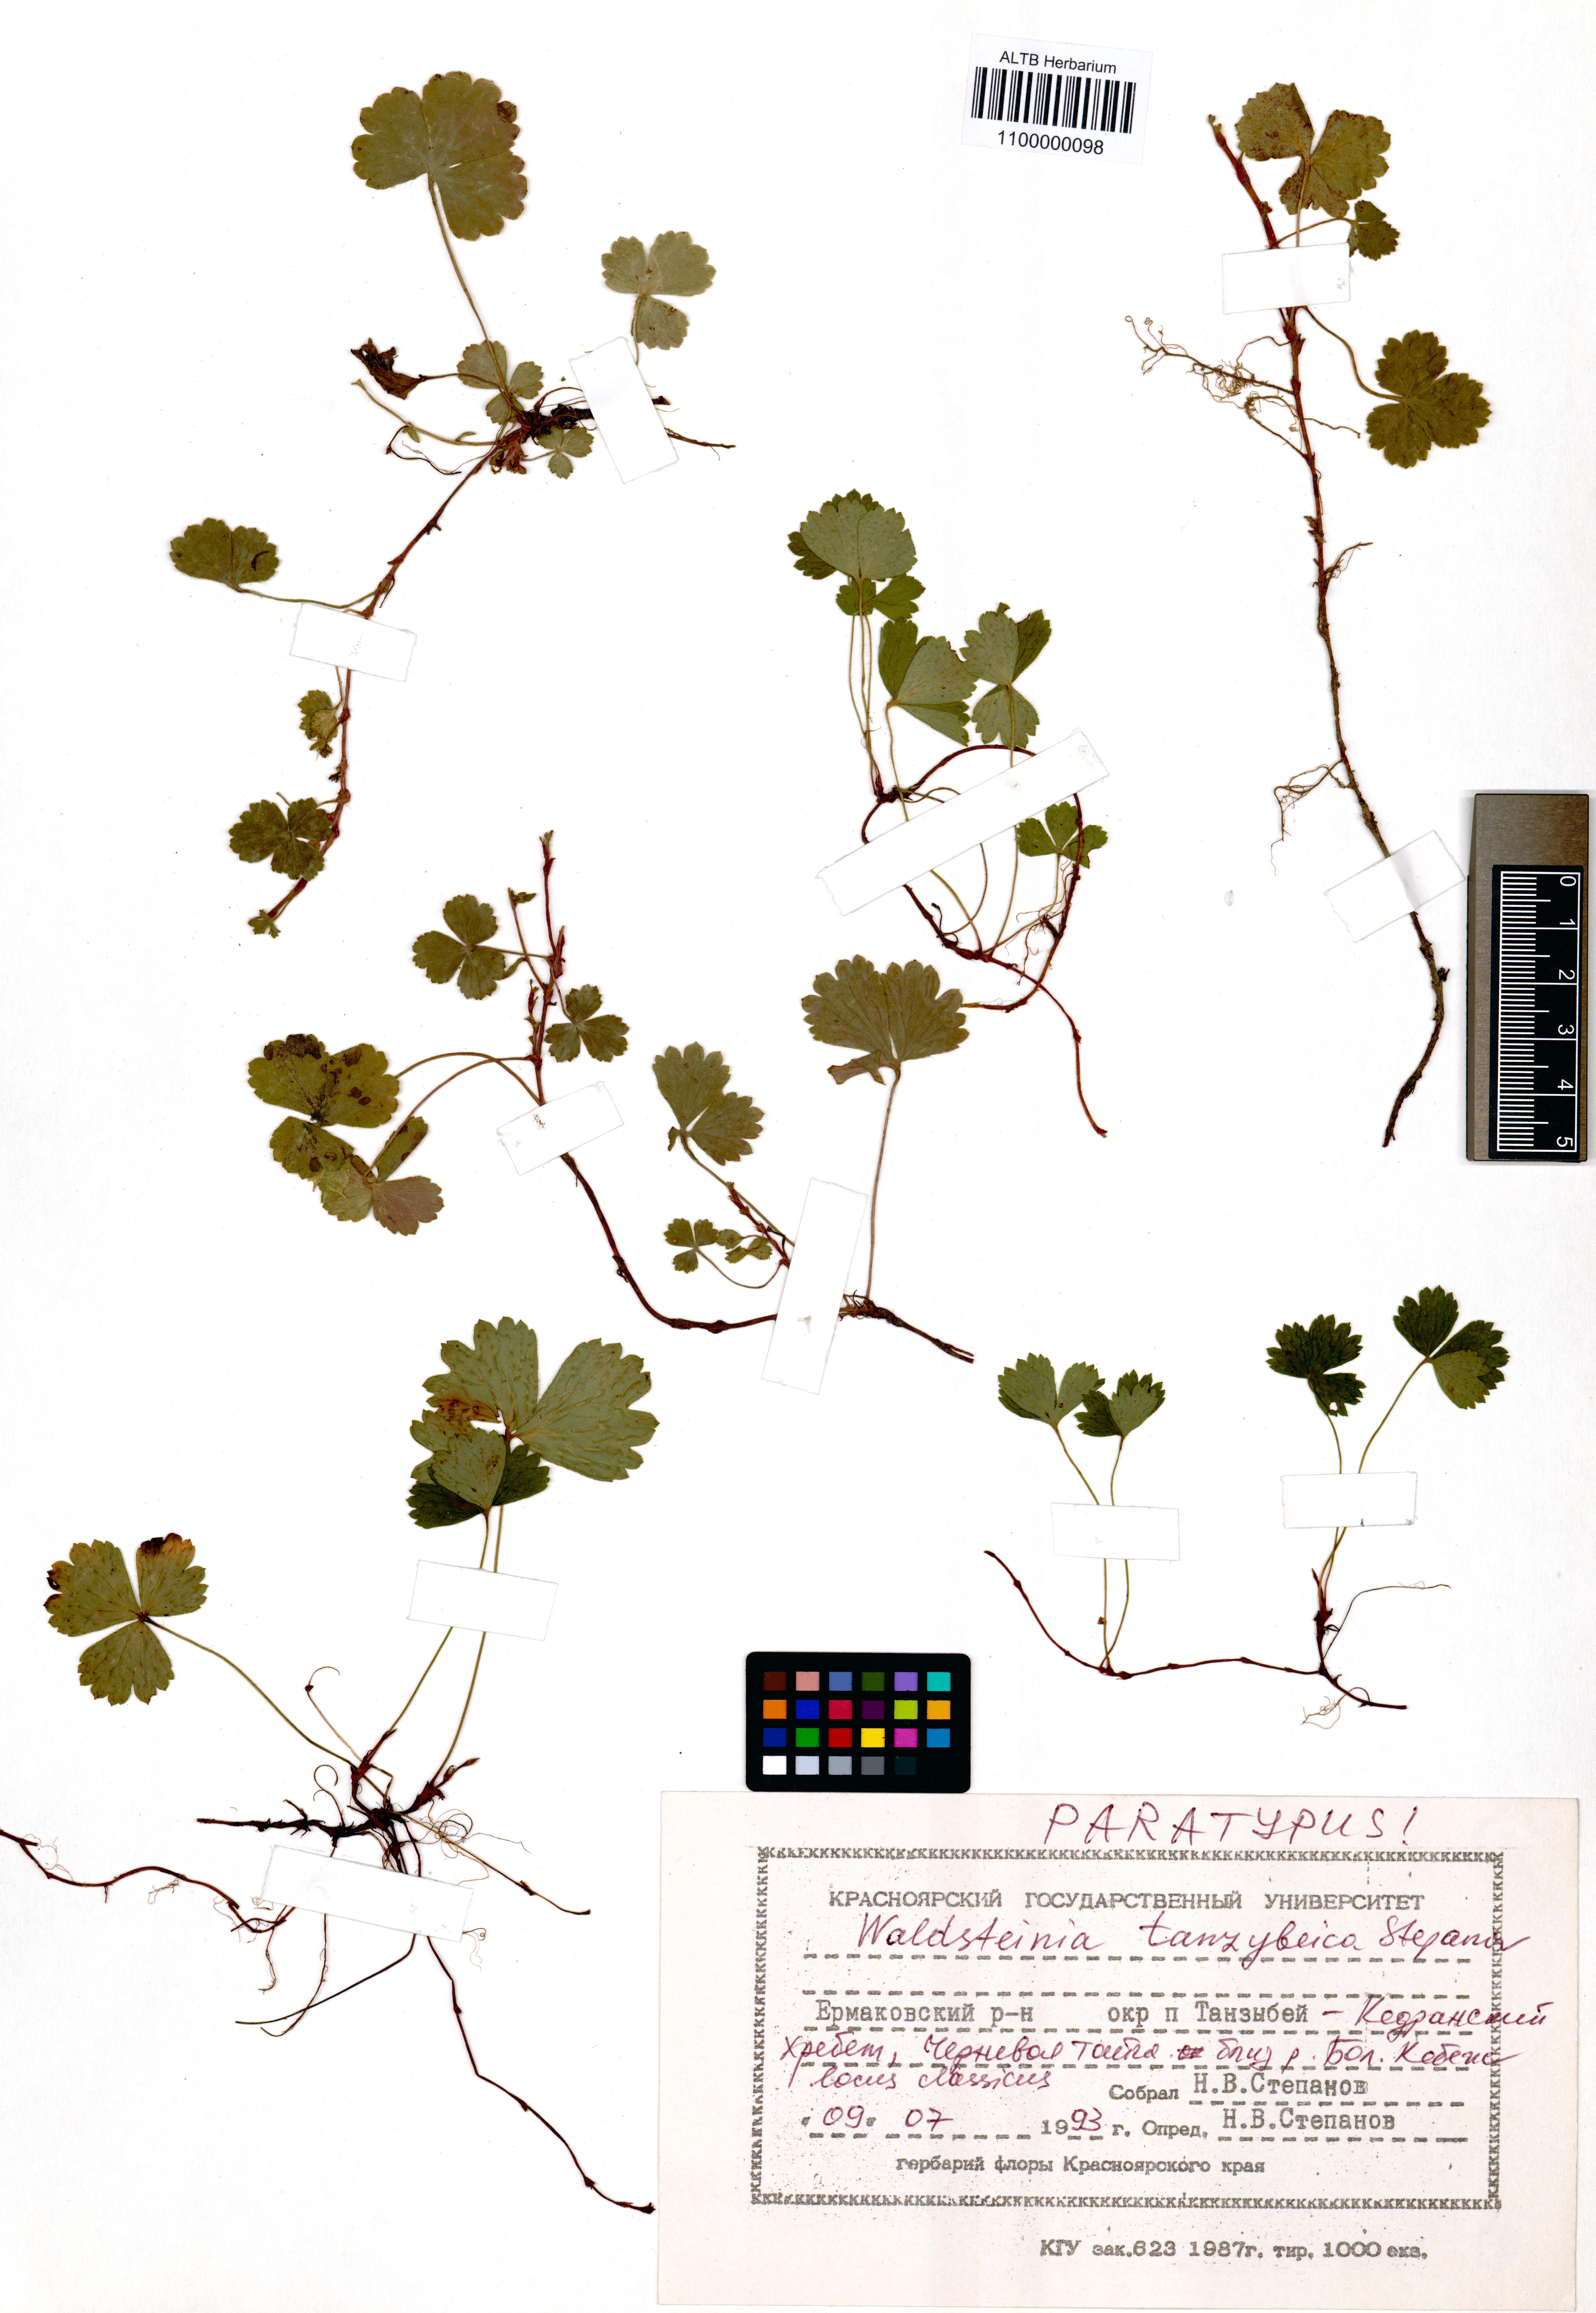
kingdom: Plantae
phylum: Tracheophyta
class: Magnoliopsida
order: Rosales
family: Rosaceae
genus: Geum
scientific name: Geum tanzybeicum
